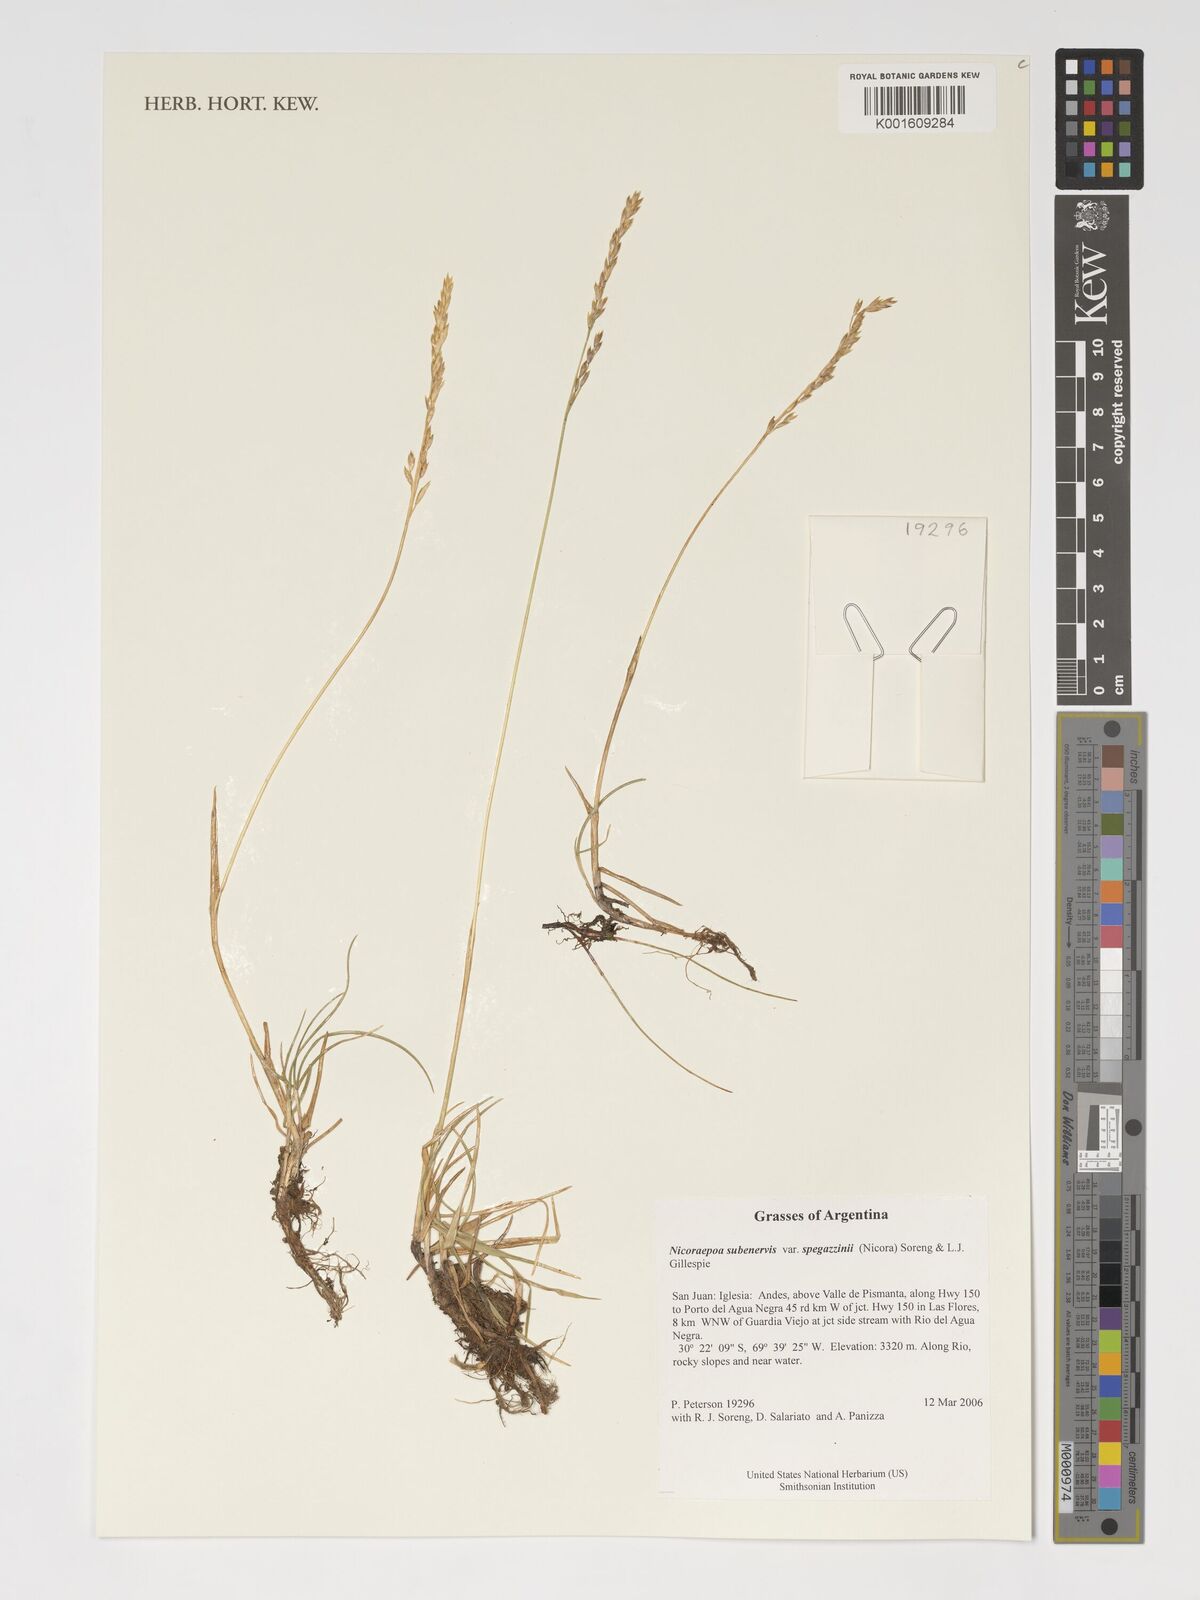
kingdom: Plantae
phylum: Tracheophyta
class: Liliopsida
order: Poales
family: Poaceae
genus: Nicoraepoa
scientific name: Nicoraepoa subenervis
